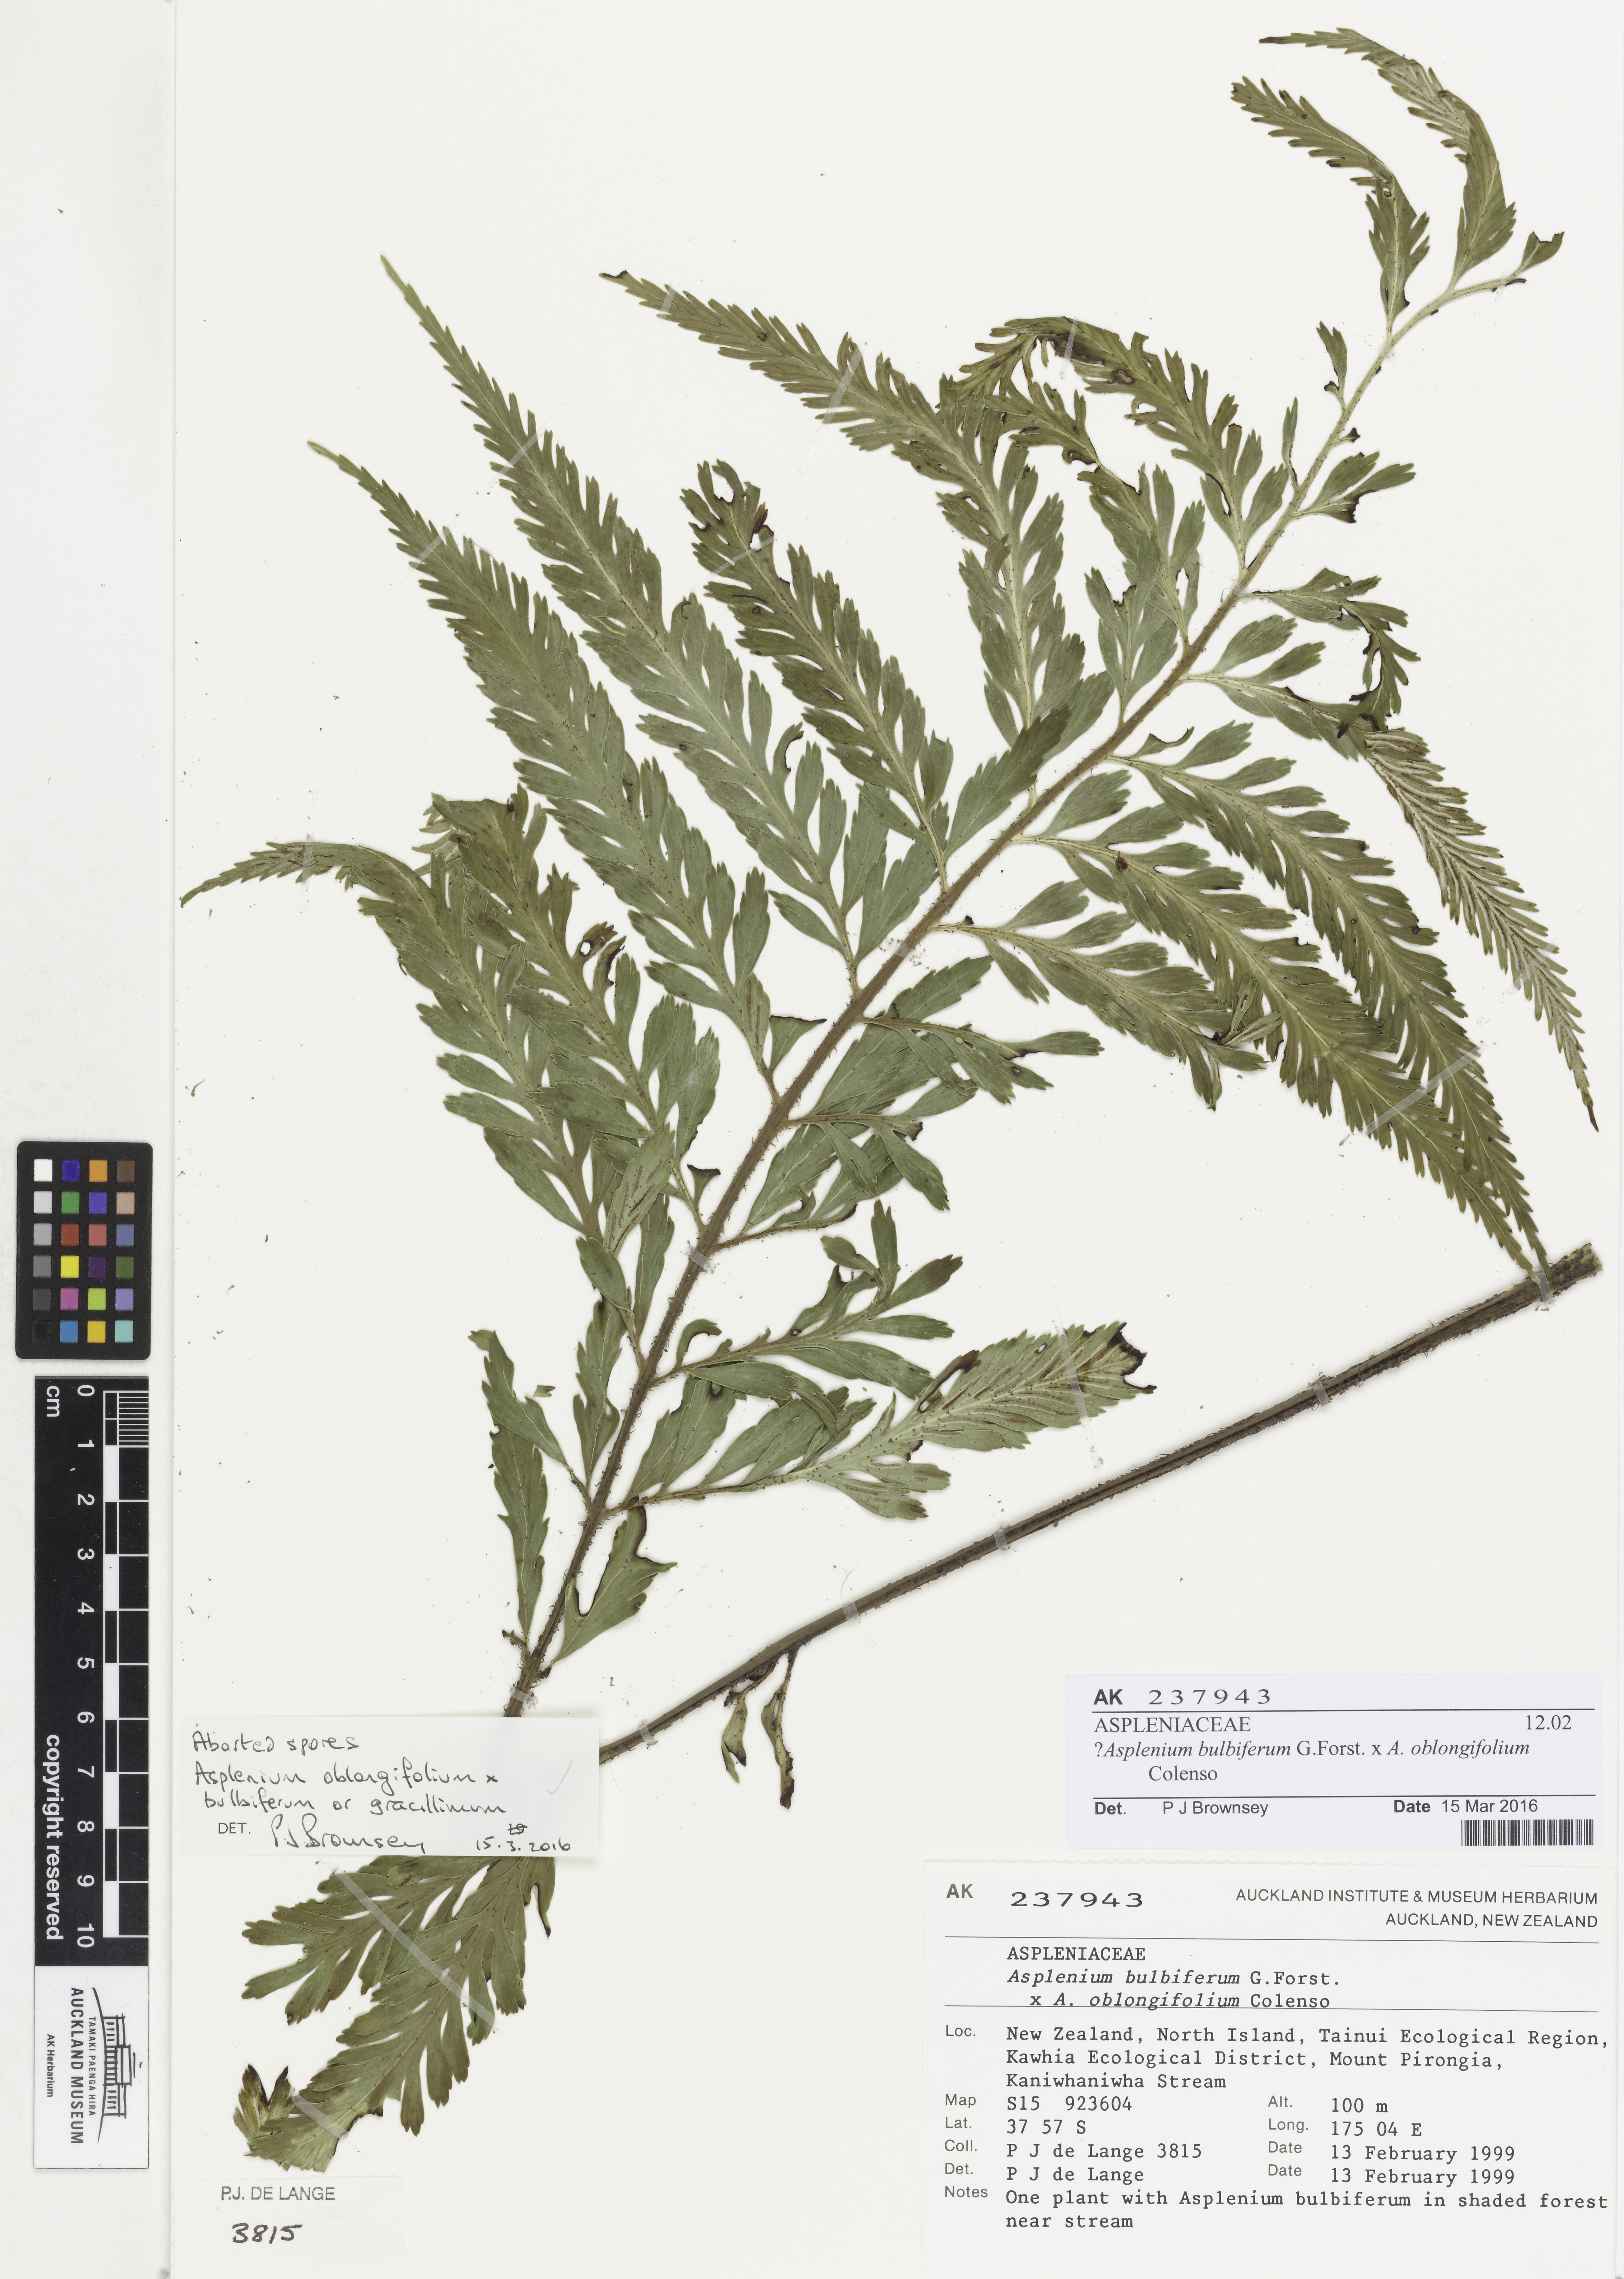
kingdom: Plantae
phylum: Tracheophyta
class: Polypodiopsida
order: Polypodiales
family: Aspleniaceae
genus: Asplenium
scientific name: Asplenium
